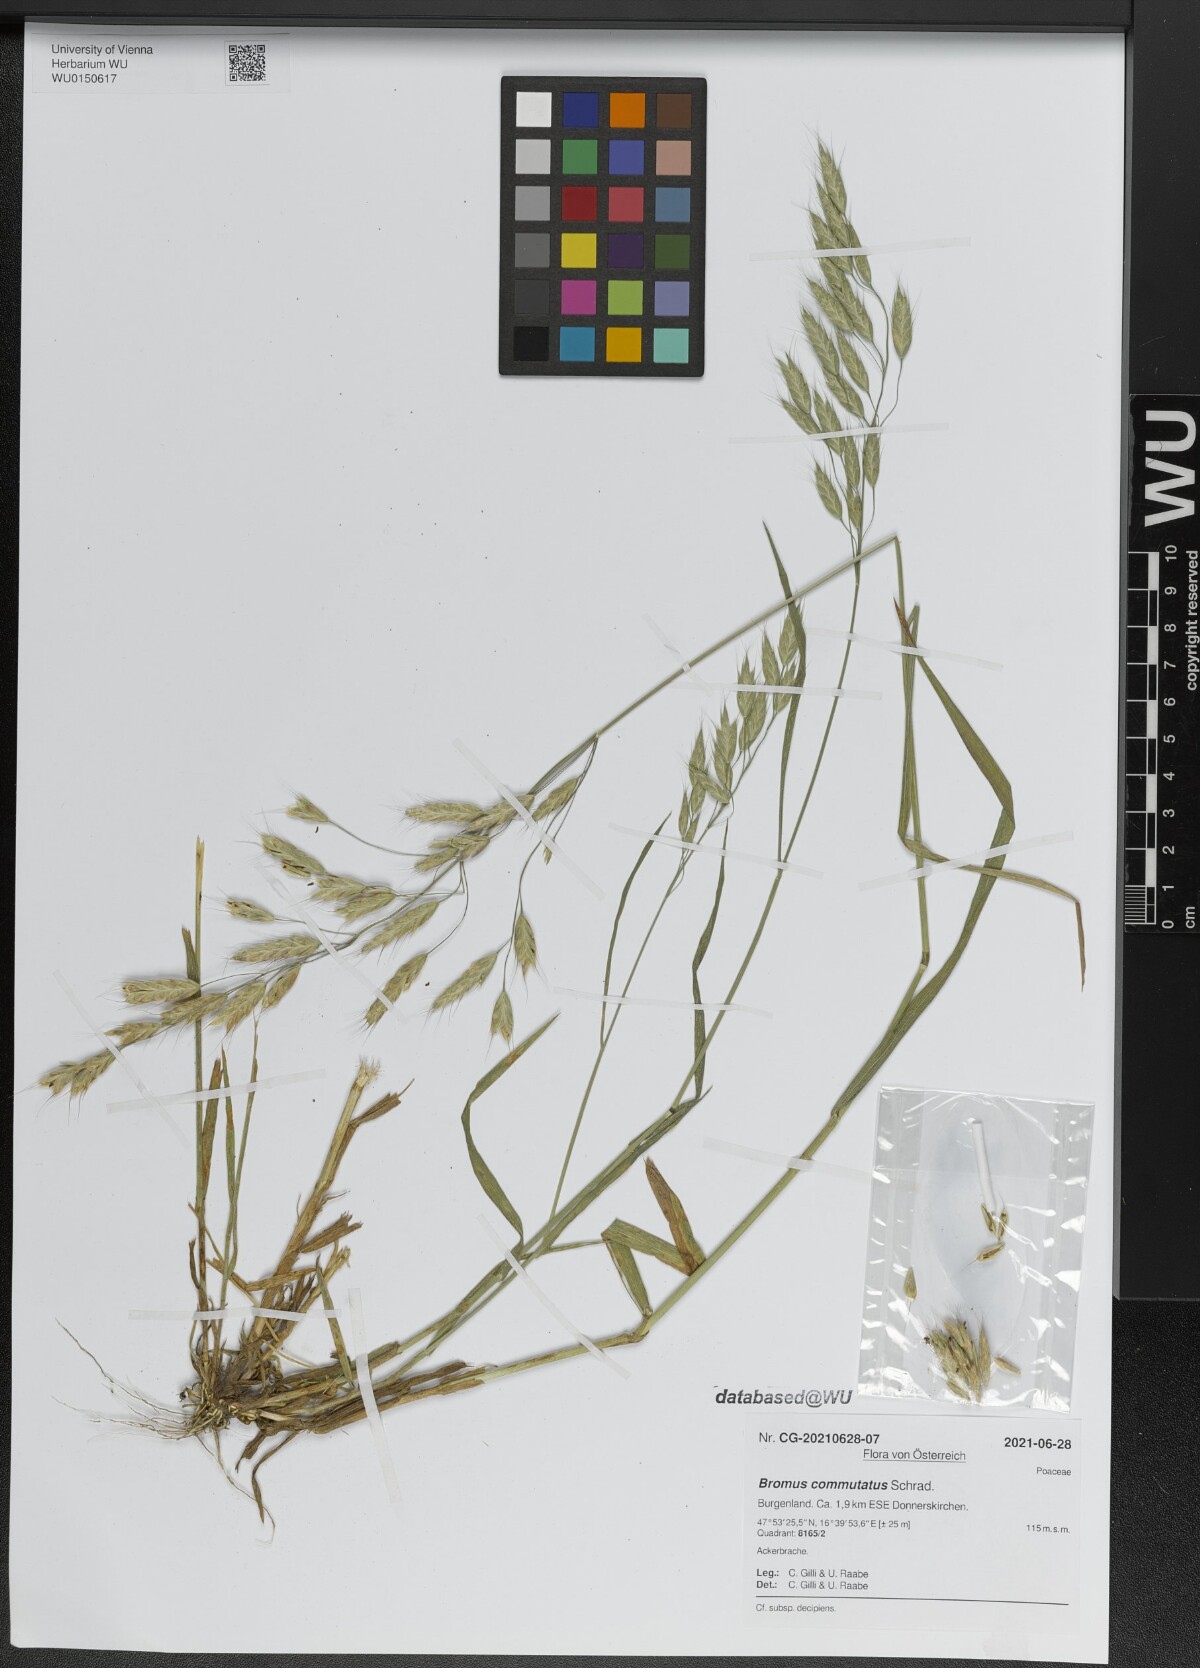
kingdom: Plantae
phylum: Tracheophyta
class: Liliopsida
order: Poales
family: Poaceae
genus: Bromus
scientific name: Bromus commutatus
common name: Meadow brome
